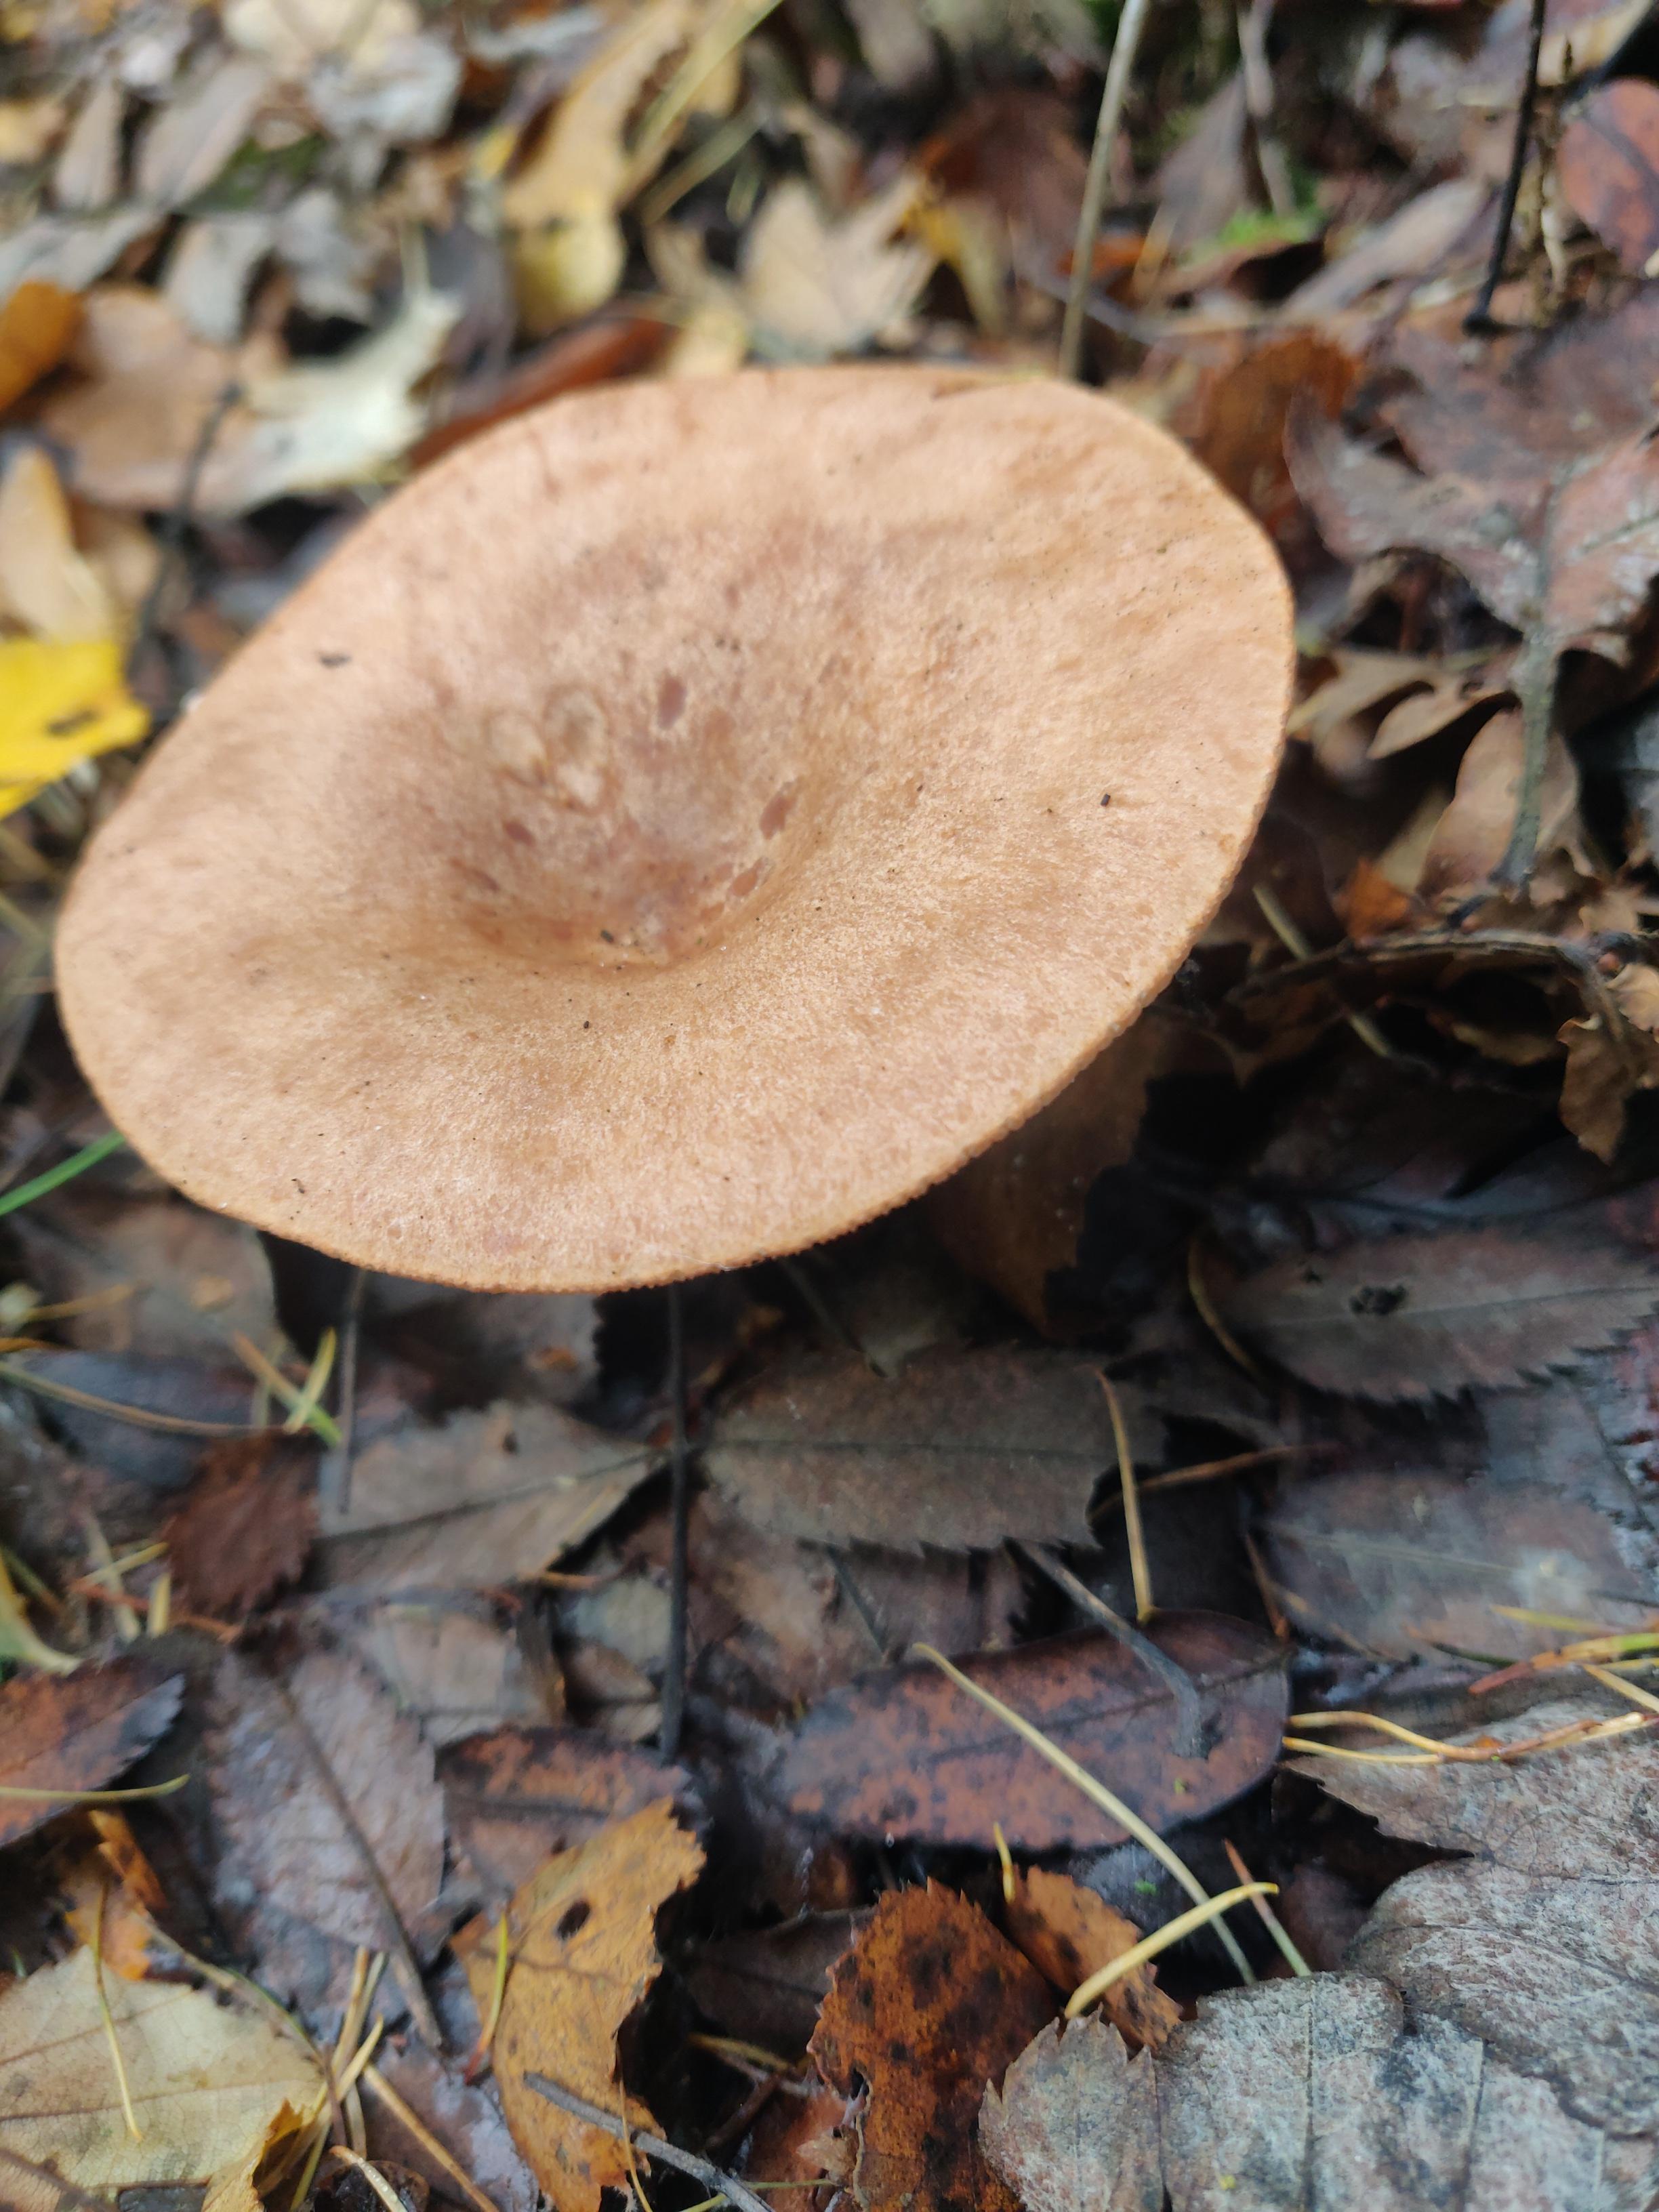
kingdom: Fungi
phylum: Basidiomycota
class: Agaricomycetes
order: Russulales
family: Russulaceae
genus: Lactarius
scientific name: Lactarius quietus
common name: ege-mælkehat
